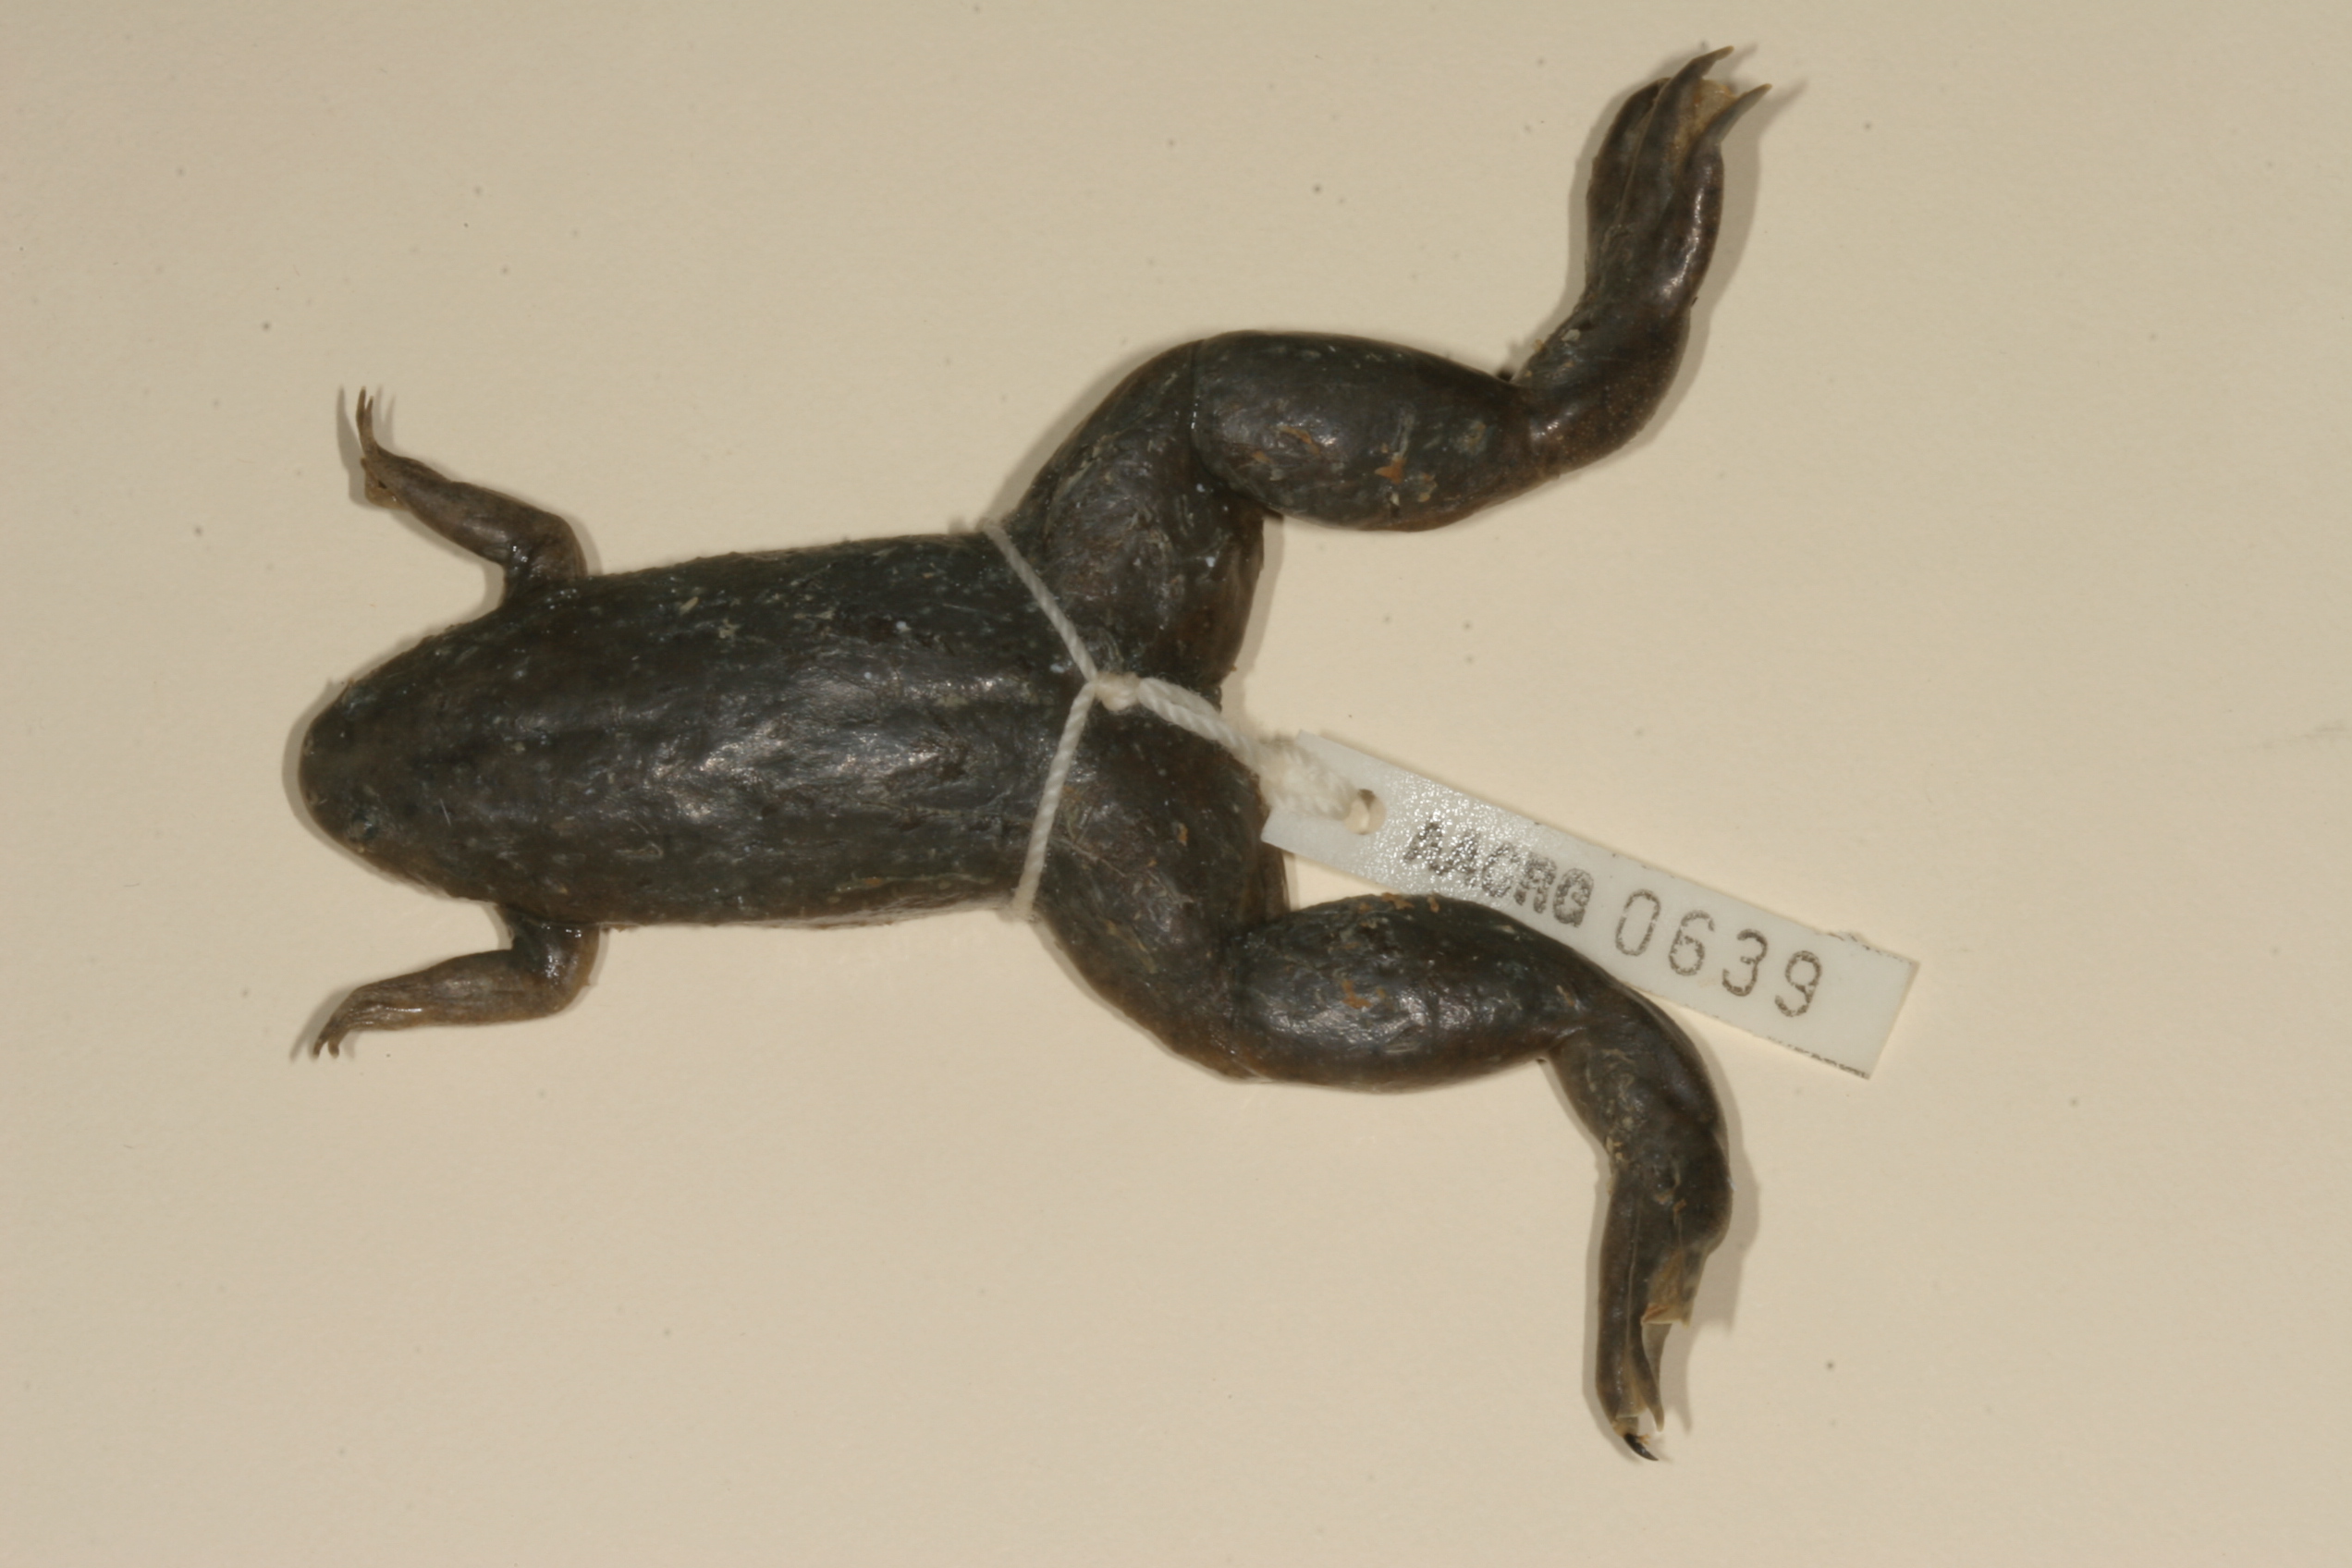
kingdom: Animalia
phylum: Chordata
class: Amphibia
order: Anura
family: Pipidae
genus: Xenopus
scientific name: Xenopus tropicalis
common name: Forest clawed frog
